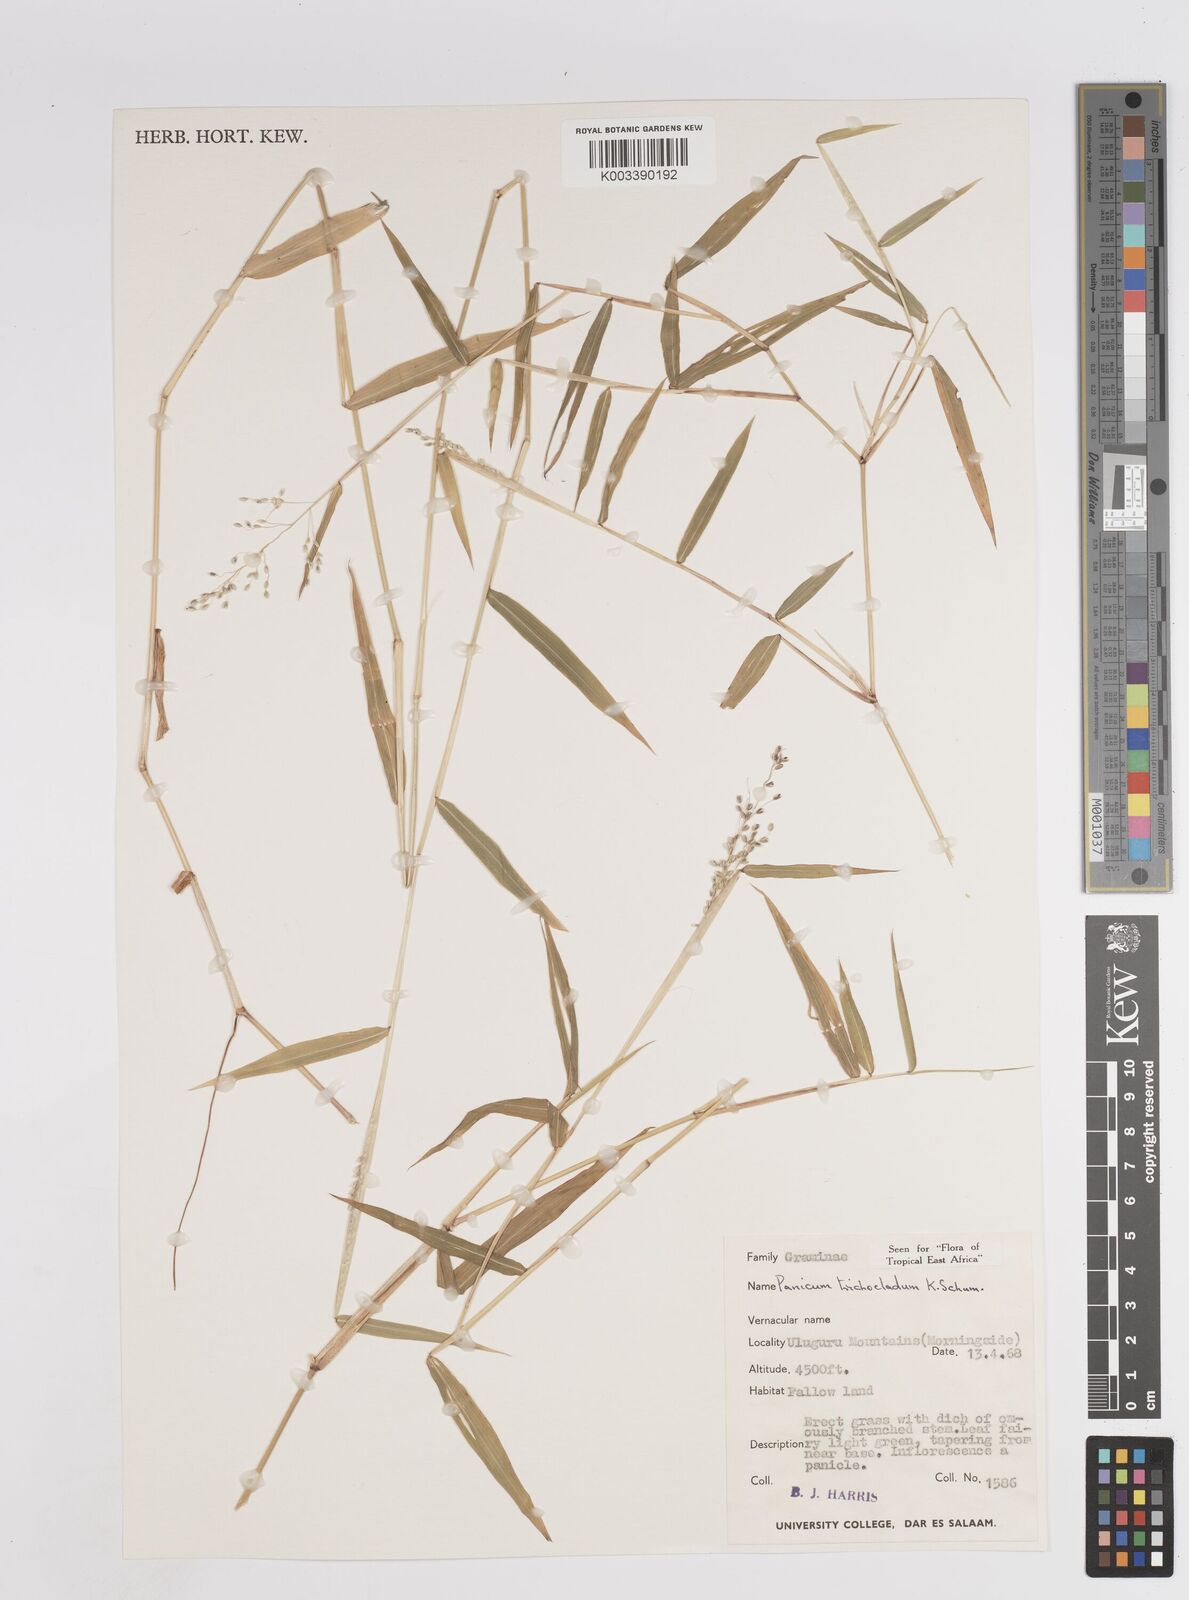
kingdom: Plantae
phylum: Tracheophyta
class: Liliopsida
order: Poales
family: Poaceae
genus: Panicum
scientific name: Panicum trichocladum
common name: Donkey grass
